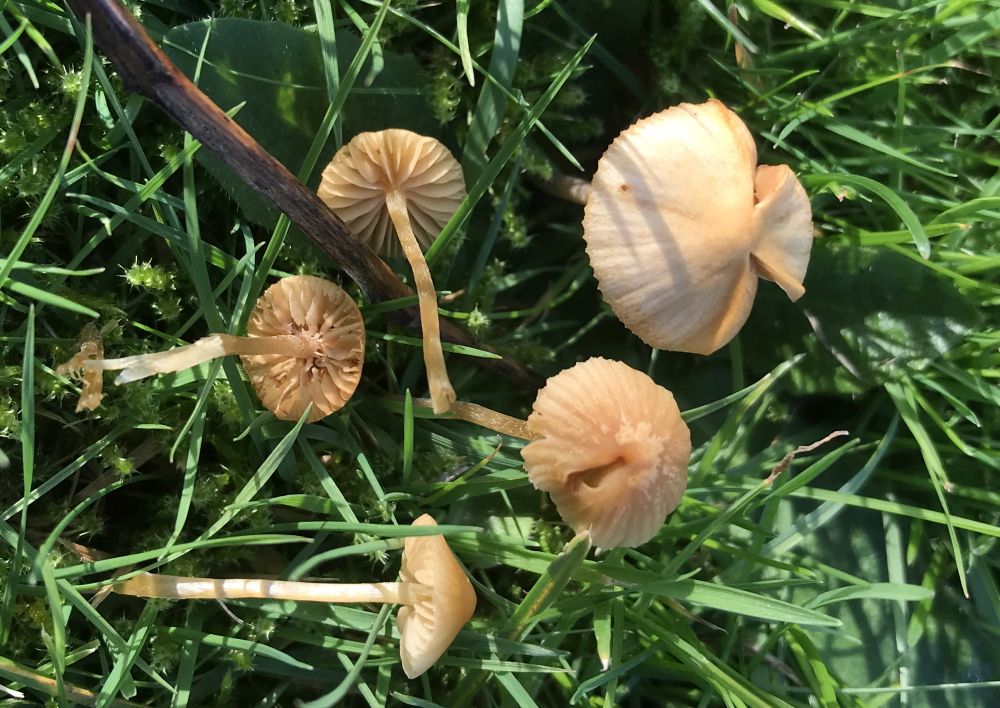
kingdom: Fungi
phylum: Basidiomycota
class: Agaricomycetes
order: Agaricales
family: Hymenogastraceae
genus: Galerina
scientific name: Galerina
